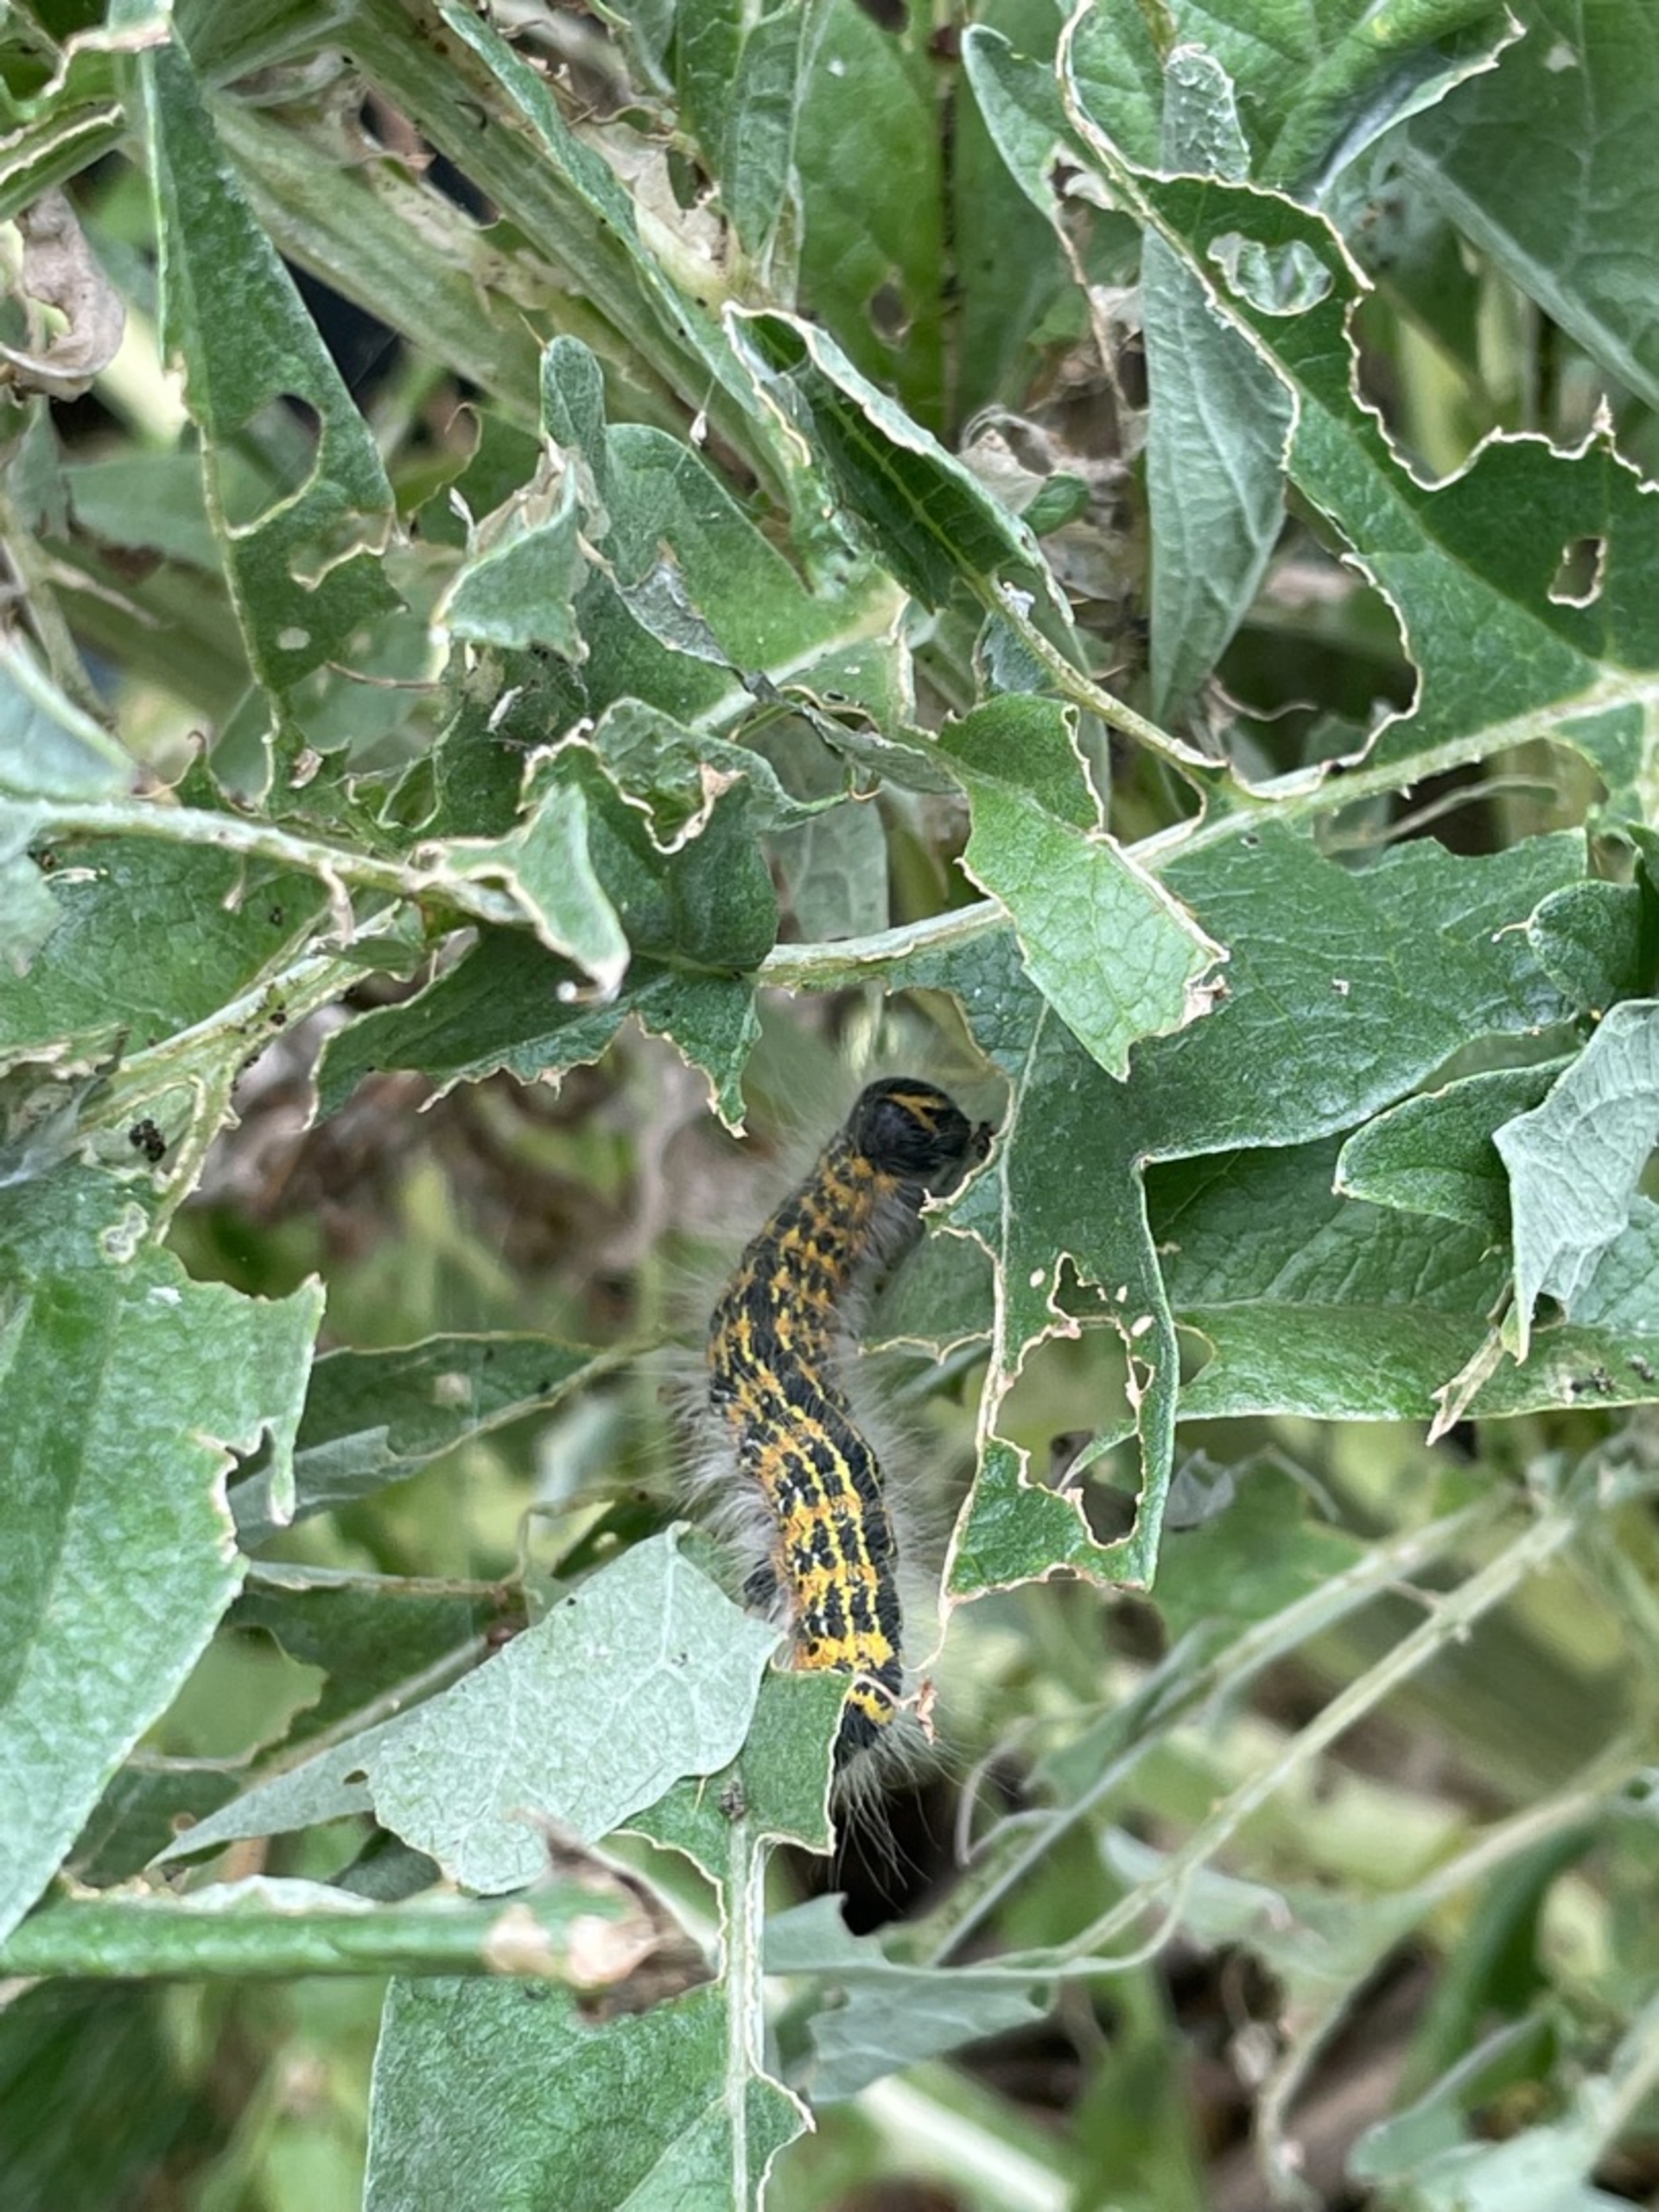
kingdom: Animalia
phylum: Arthropoda
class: Insecta
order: Lepidoptera
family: Notodontidae
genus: Phalera
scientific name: Phalera bucephala
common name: Måneplet
